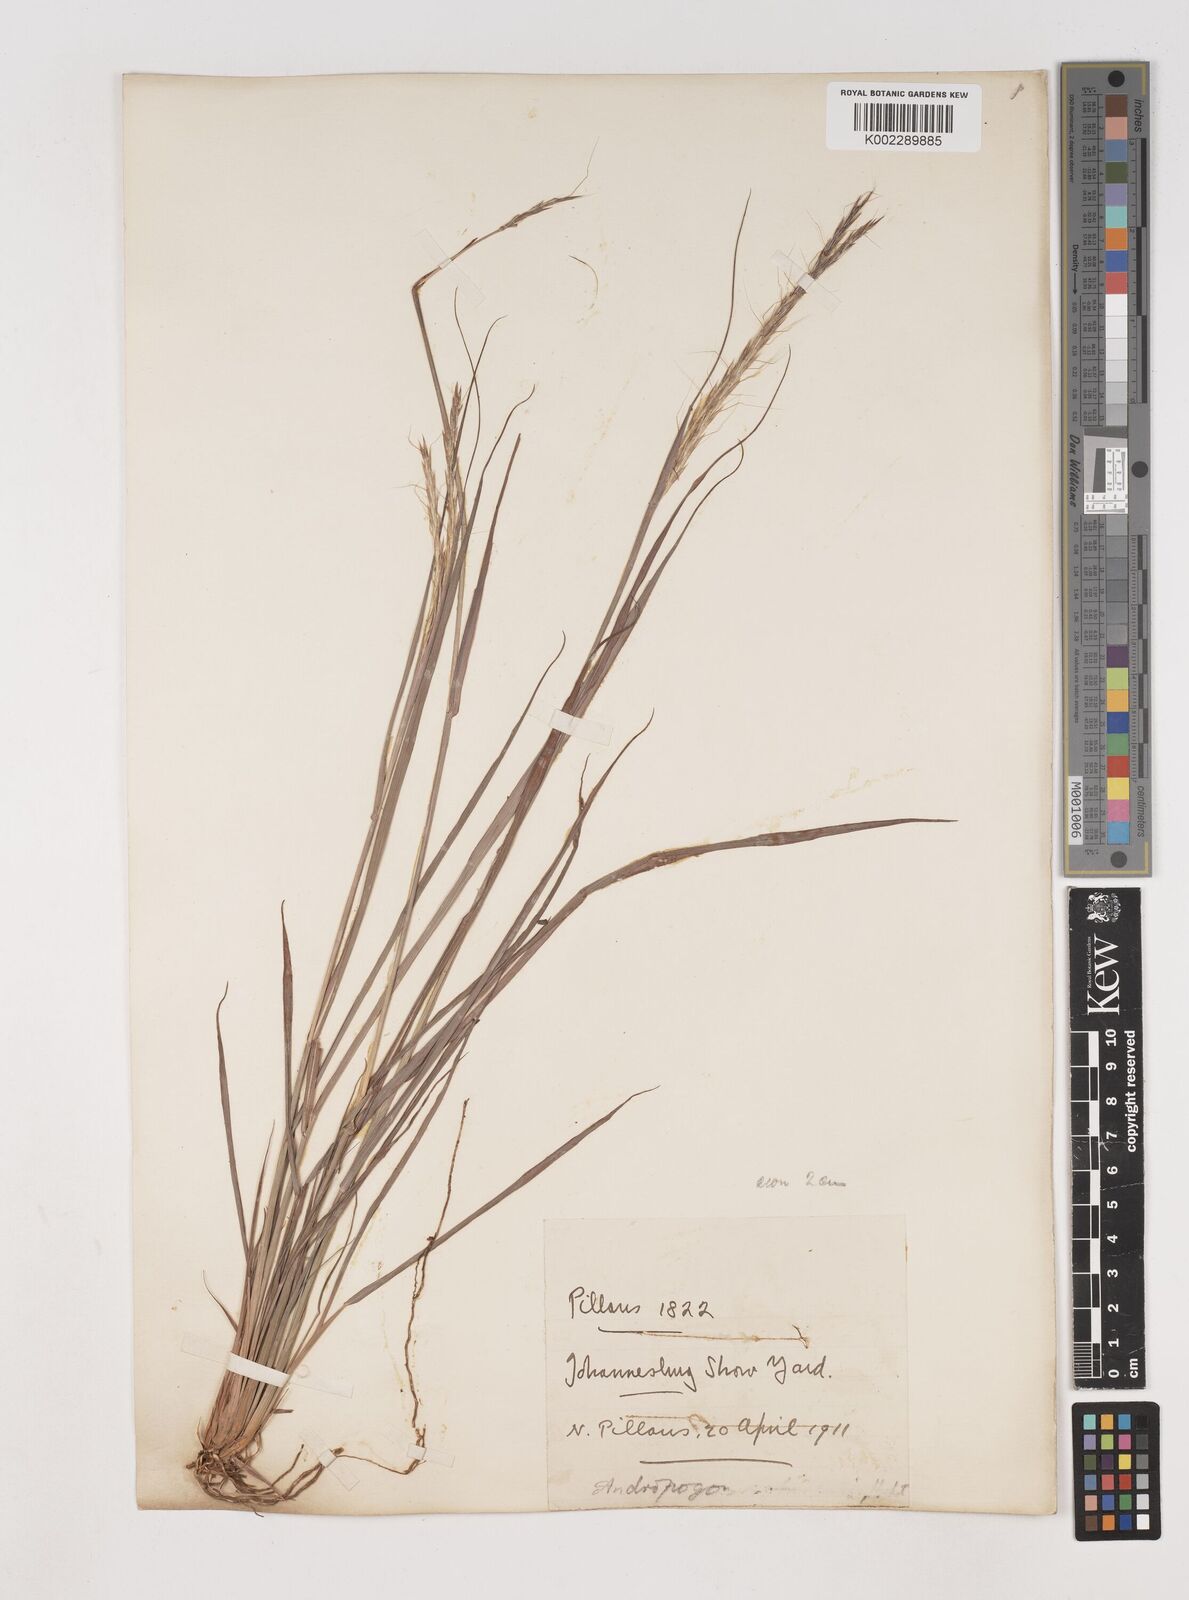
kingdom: Plantae
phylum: Tracheophyta
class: Liliopsida
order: Poales
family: Poaceae
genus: Diheteropogon
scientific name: Diheteropogon amplectens
